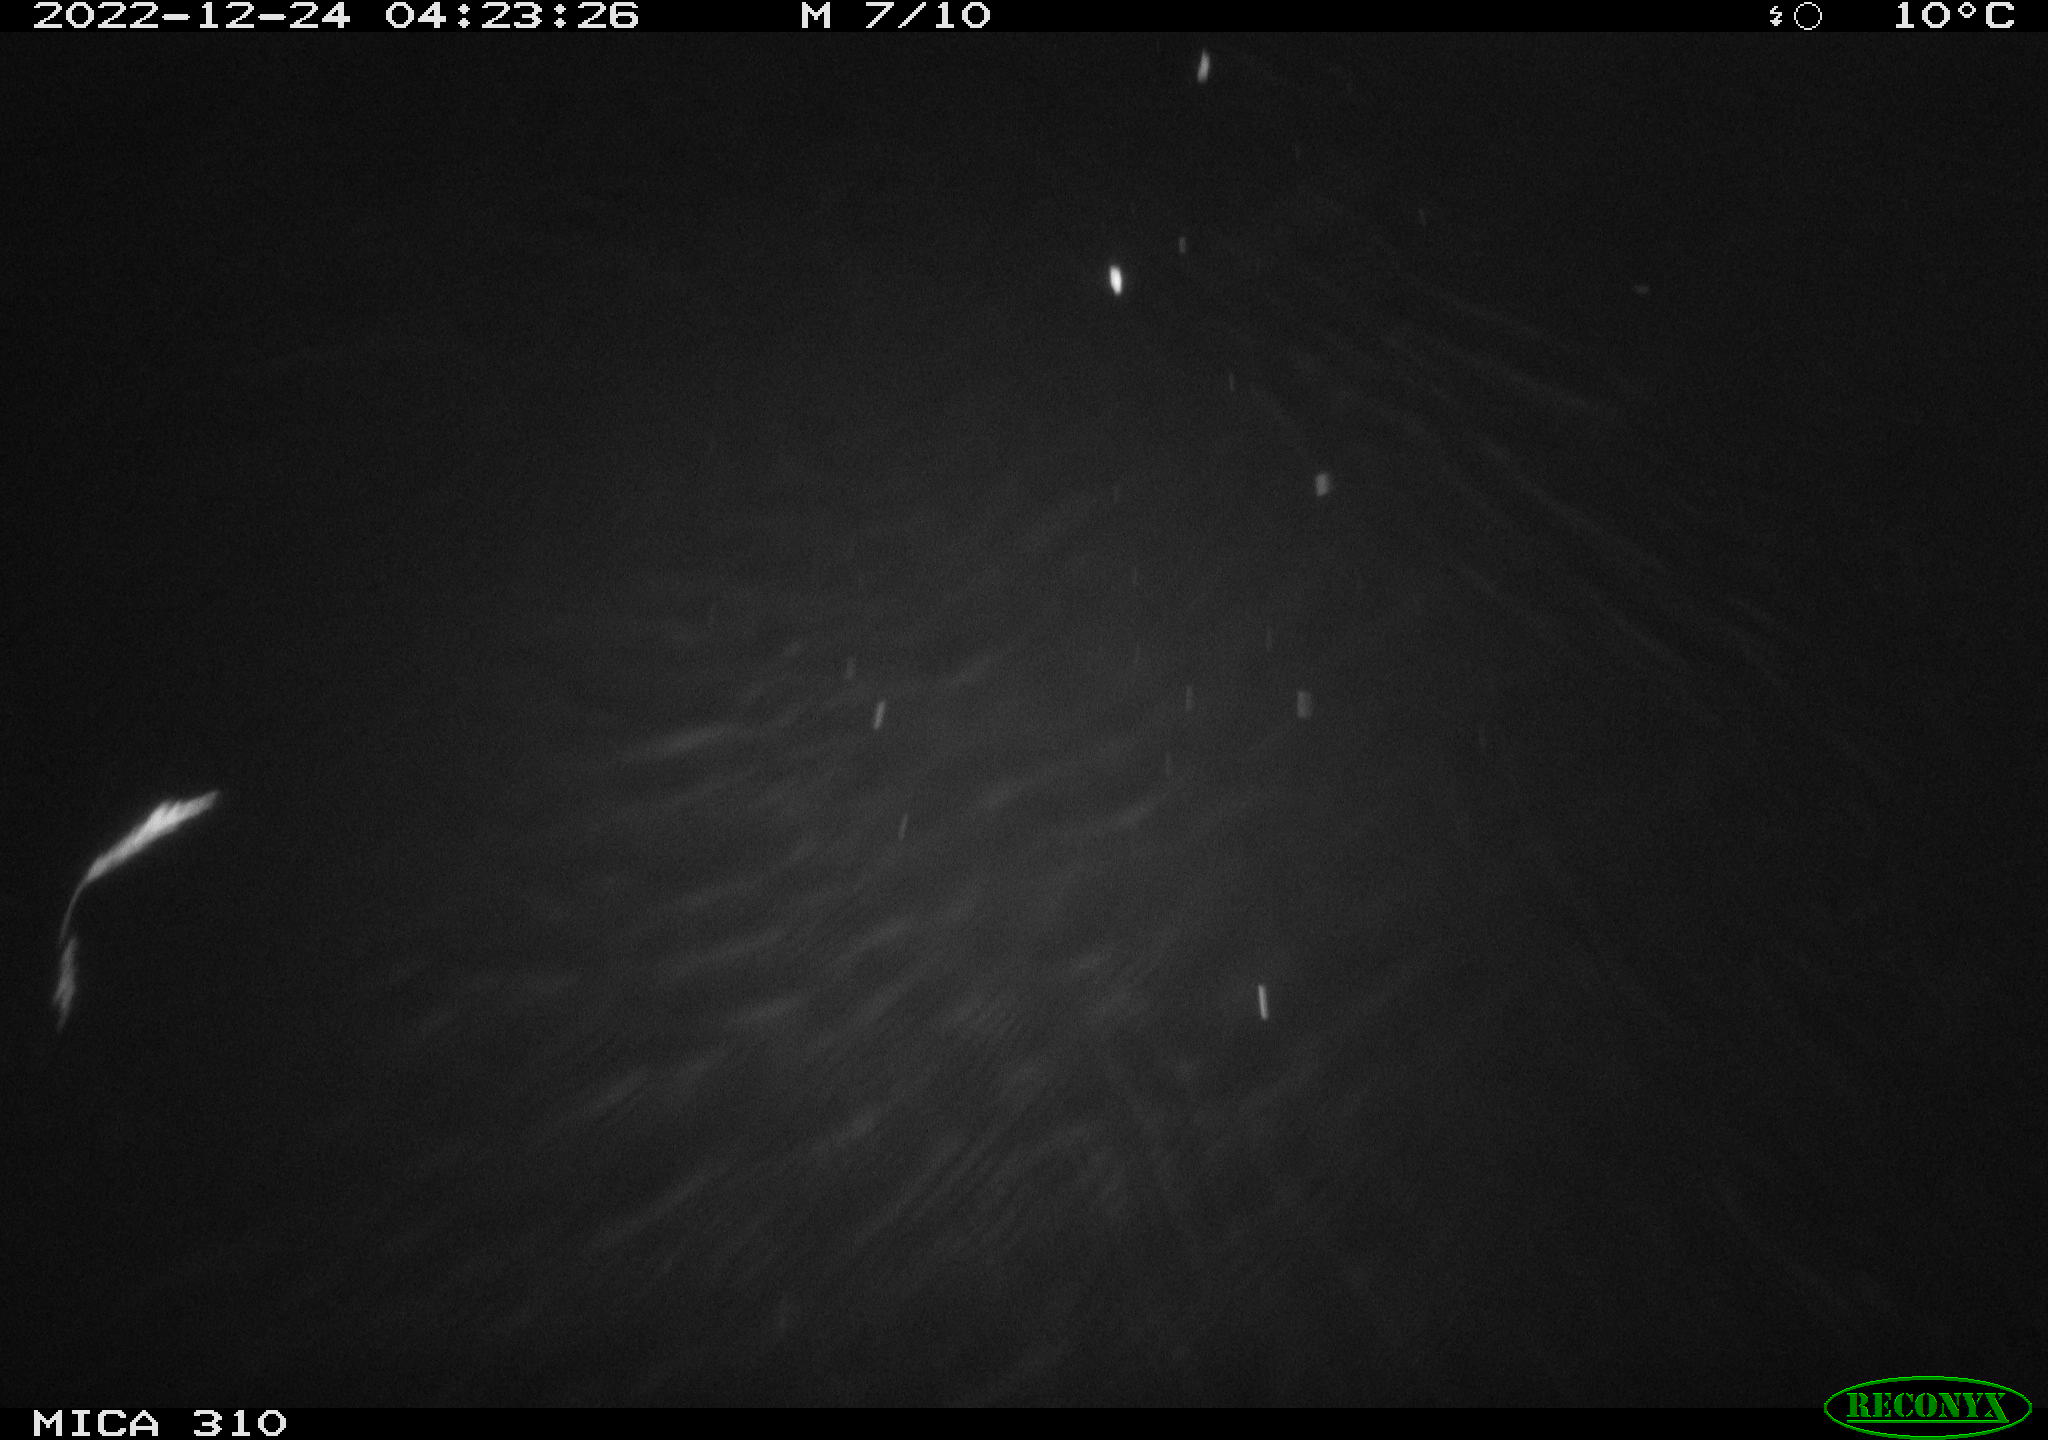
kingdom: Animalia
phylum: Chordata
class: Mammalia
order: Rodentia
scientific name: Rodentia
